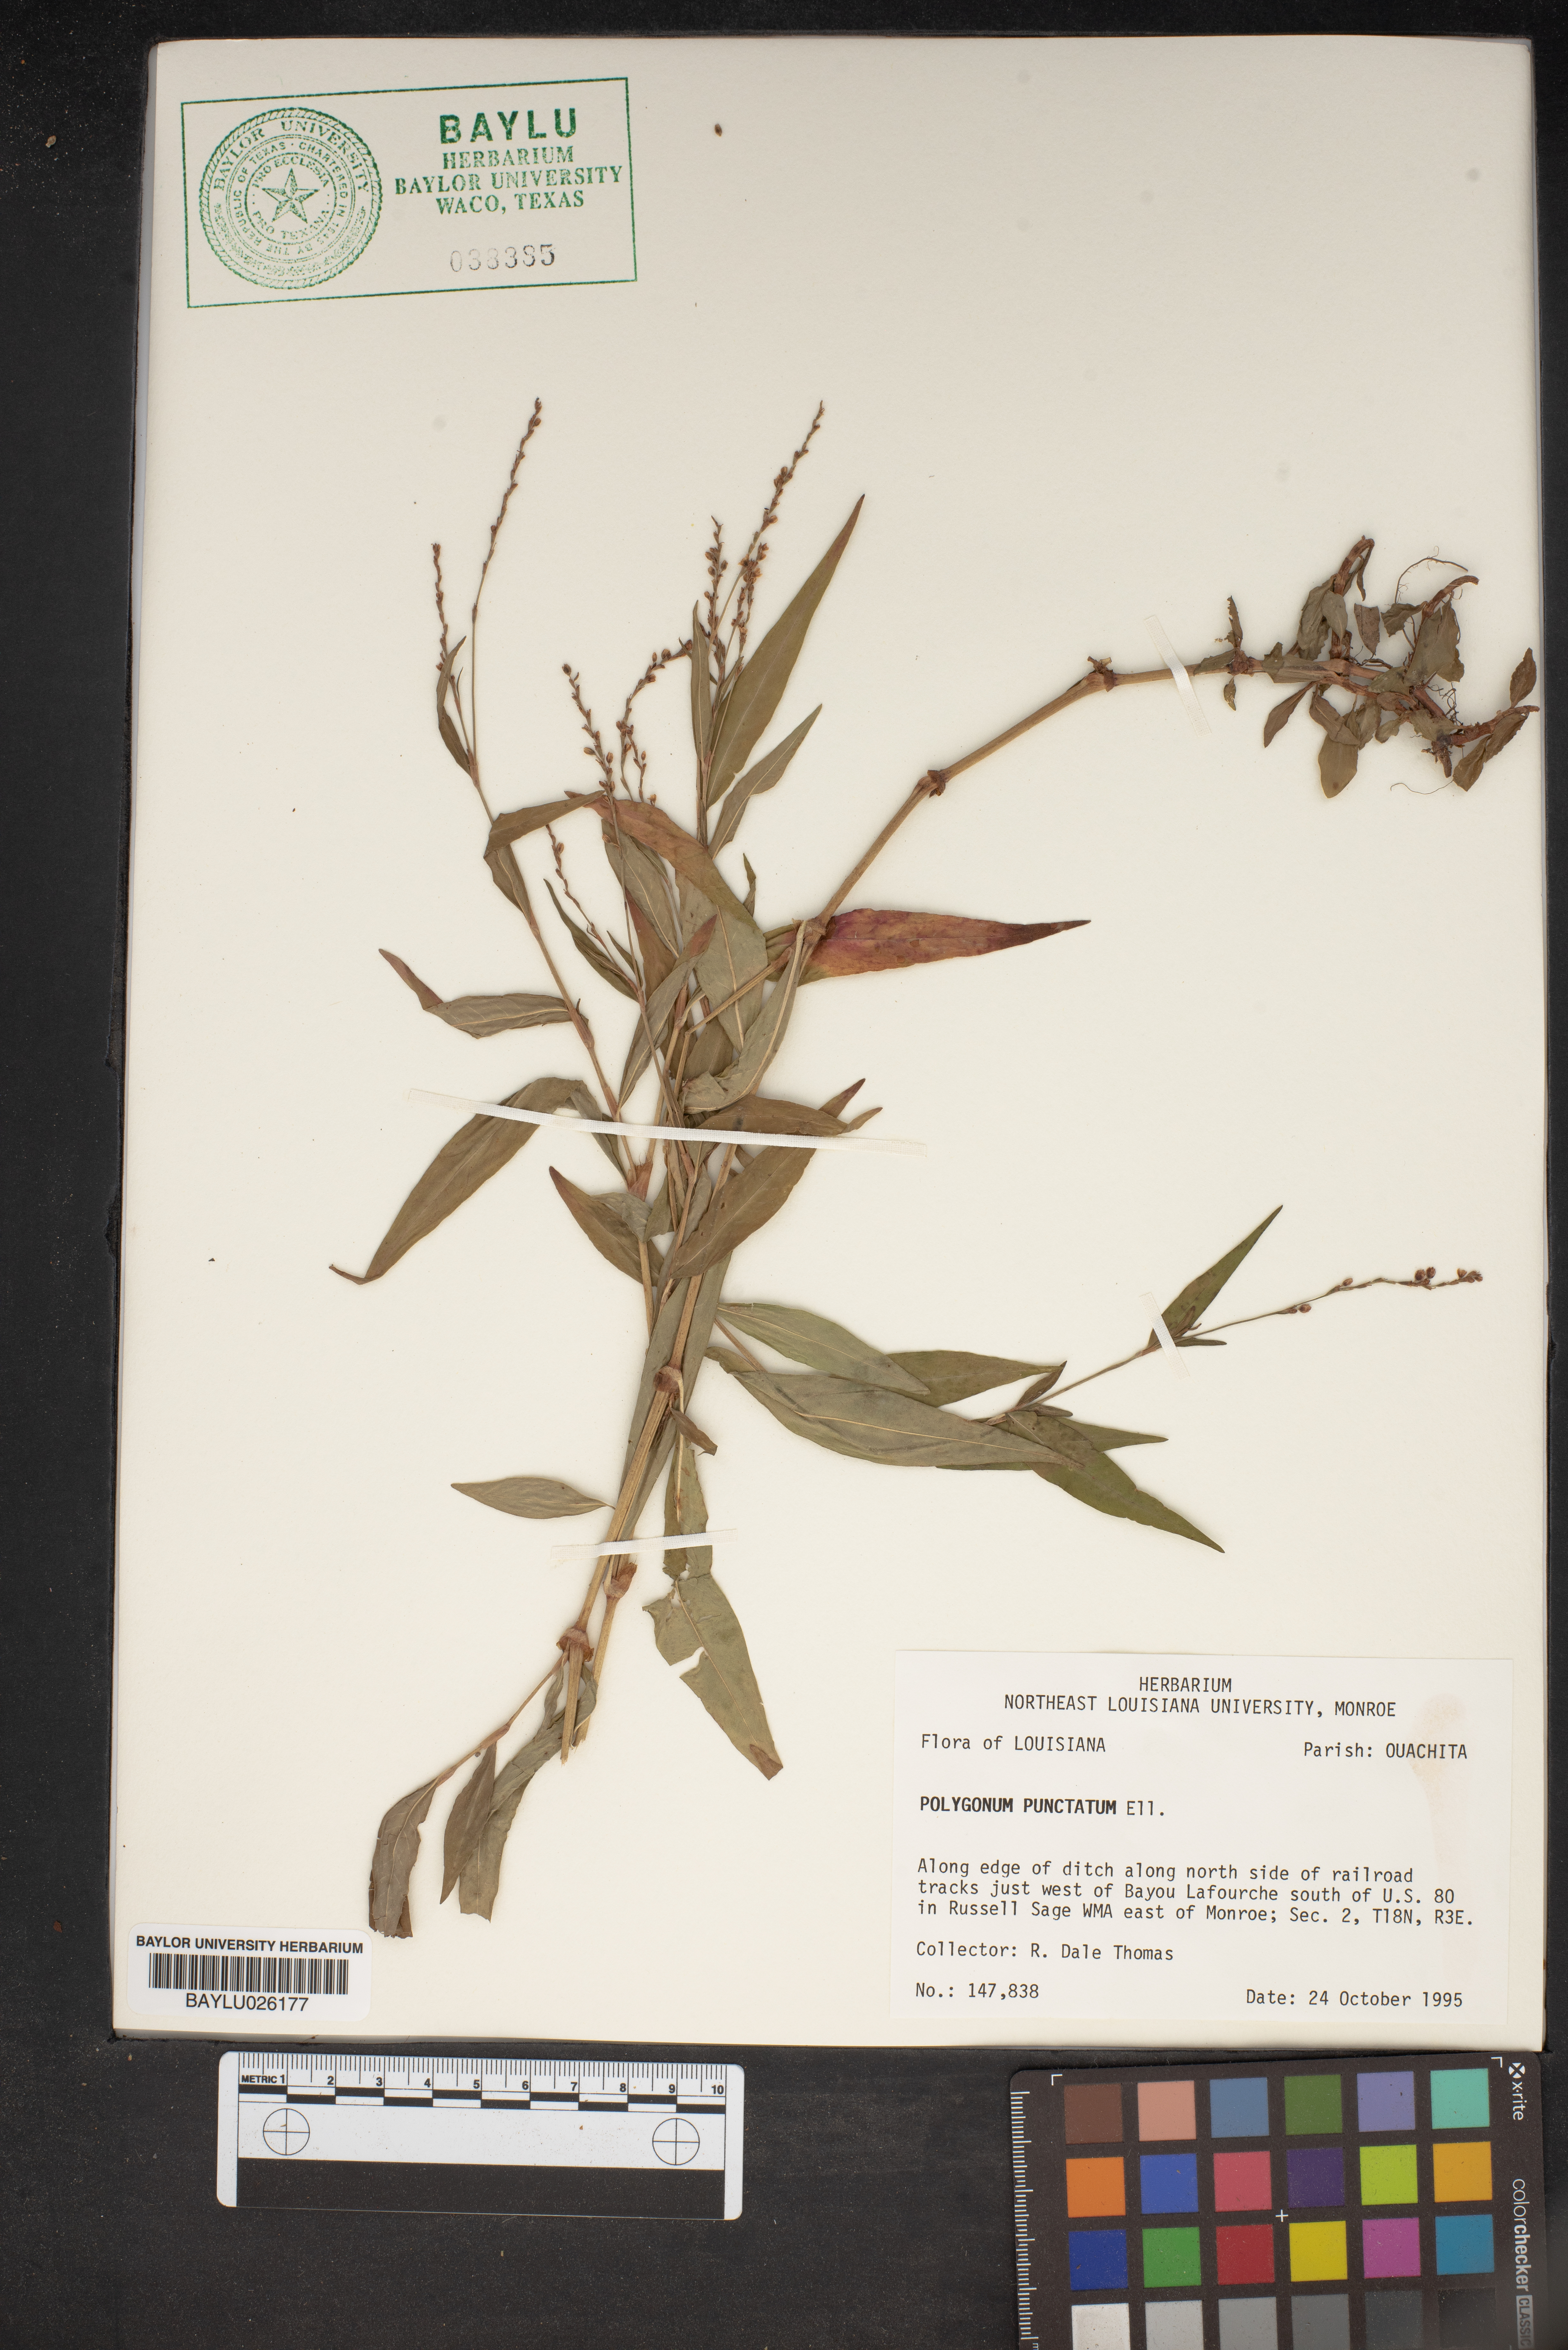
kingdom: Plantae
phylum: Tracheophyta
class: Magnoliopsida
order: Caryophyllales
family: Polygonaceae
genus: Persicaria
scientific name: Persicaria punctata
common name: Dotted smartweed
